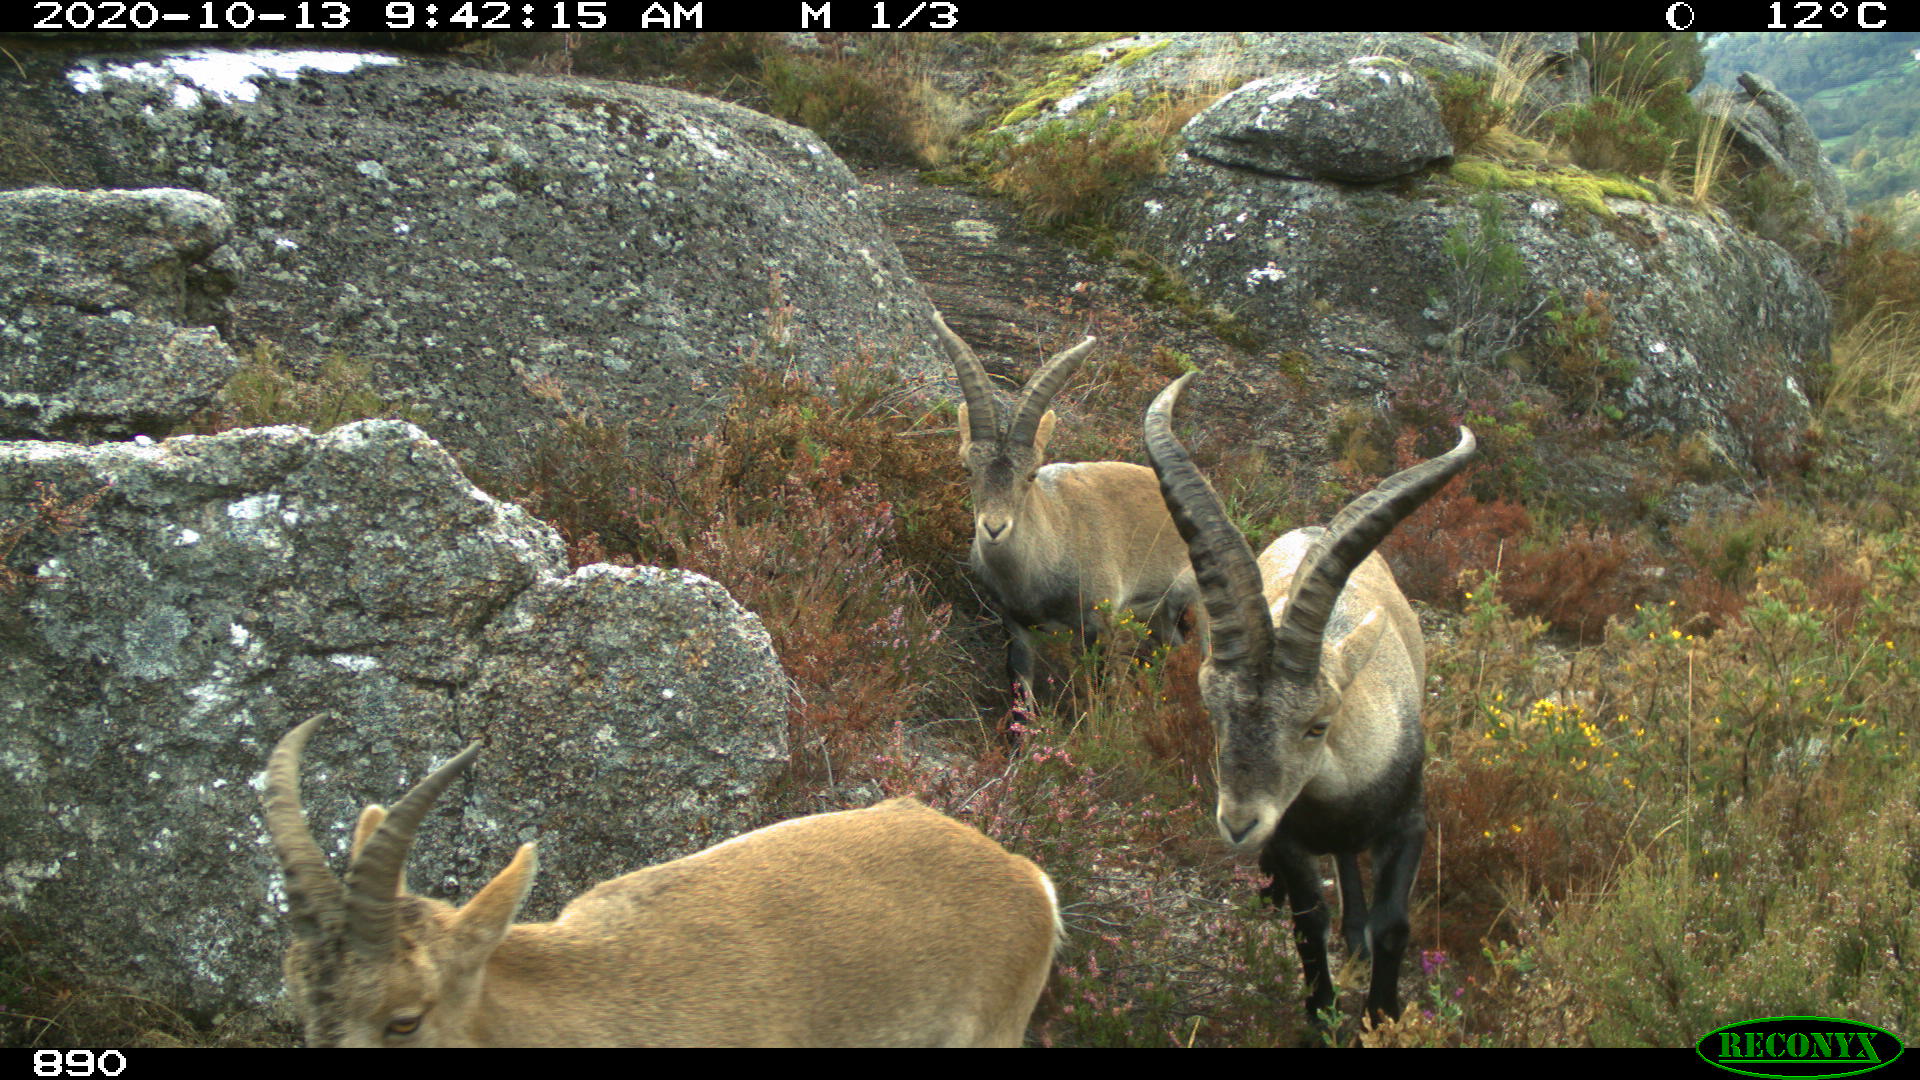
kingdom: Animalia
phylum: Chordata
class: Mammalia
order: Artiodactyla
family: Bovidae
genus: Capra
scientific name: Capra pyrenaica
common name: Spanish ibex
